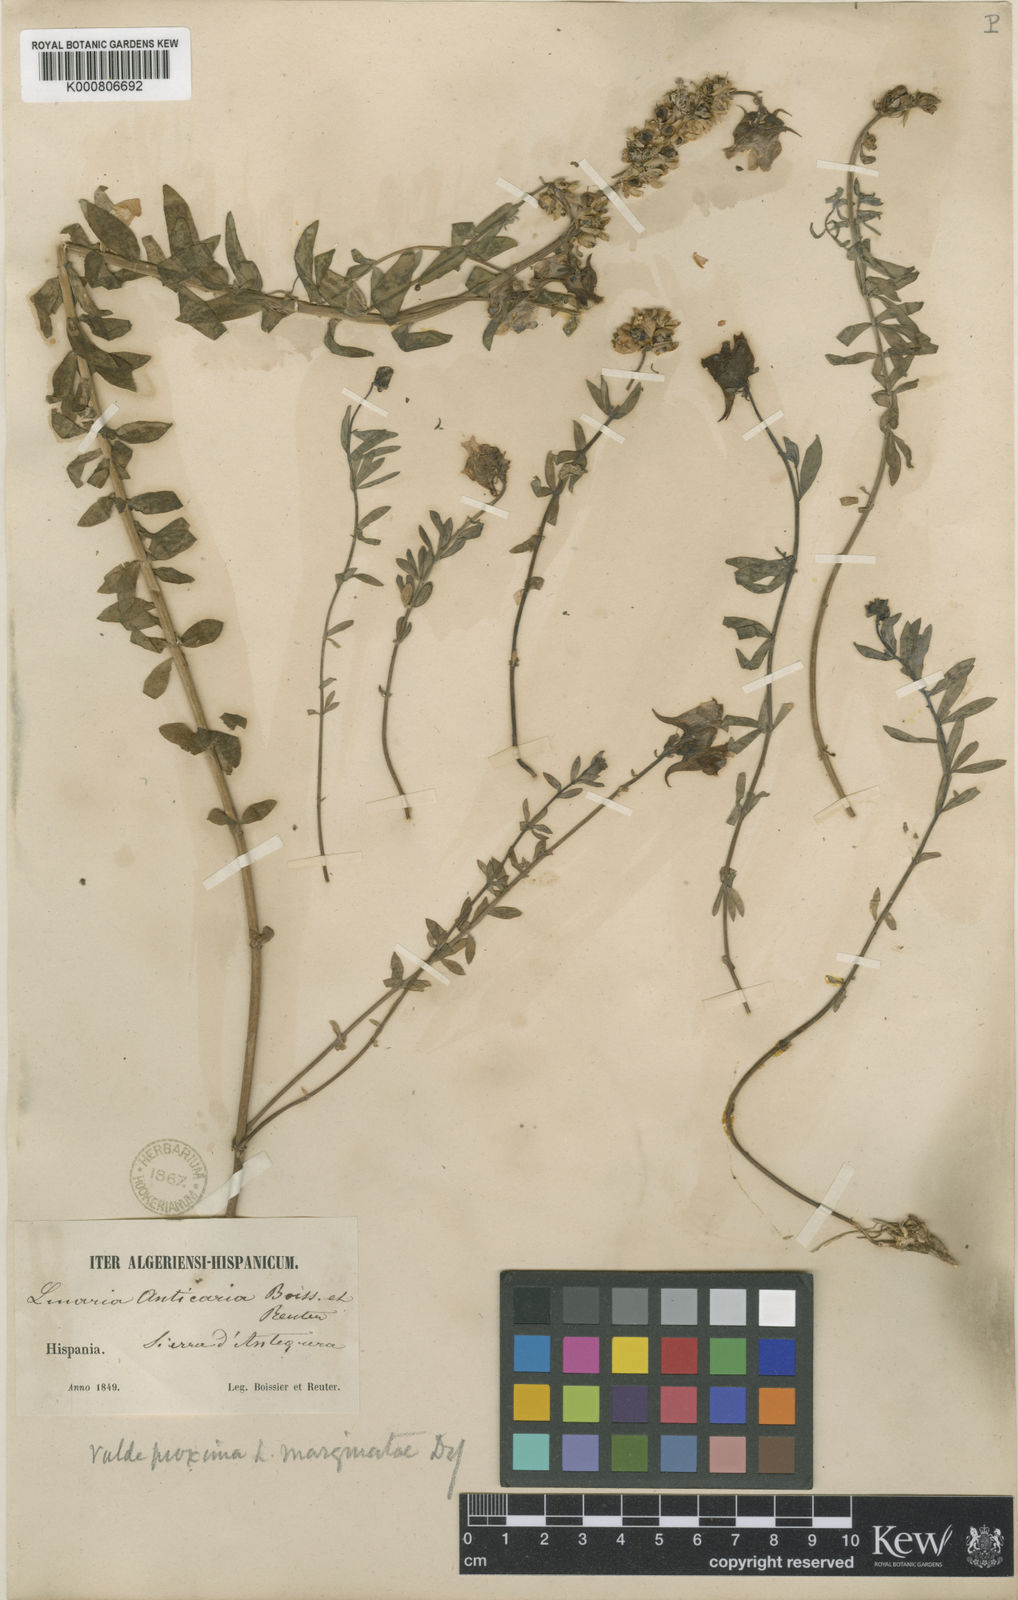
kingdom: Plantae
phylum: Tracheophyta
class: Magnoliopsida
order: Lamiales
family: Plantaginaceae
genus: Linaria
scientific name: Linaria verticillata
